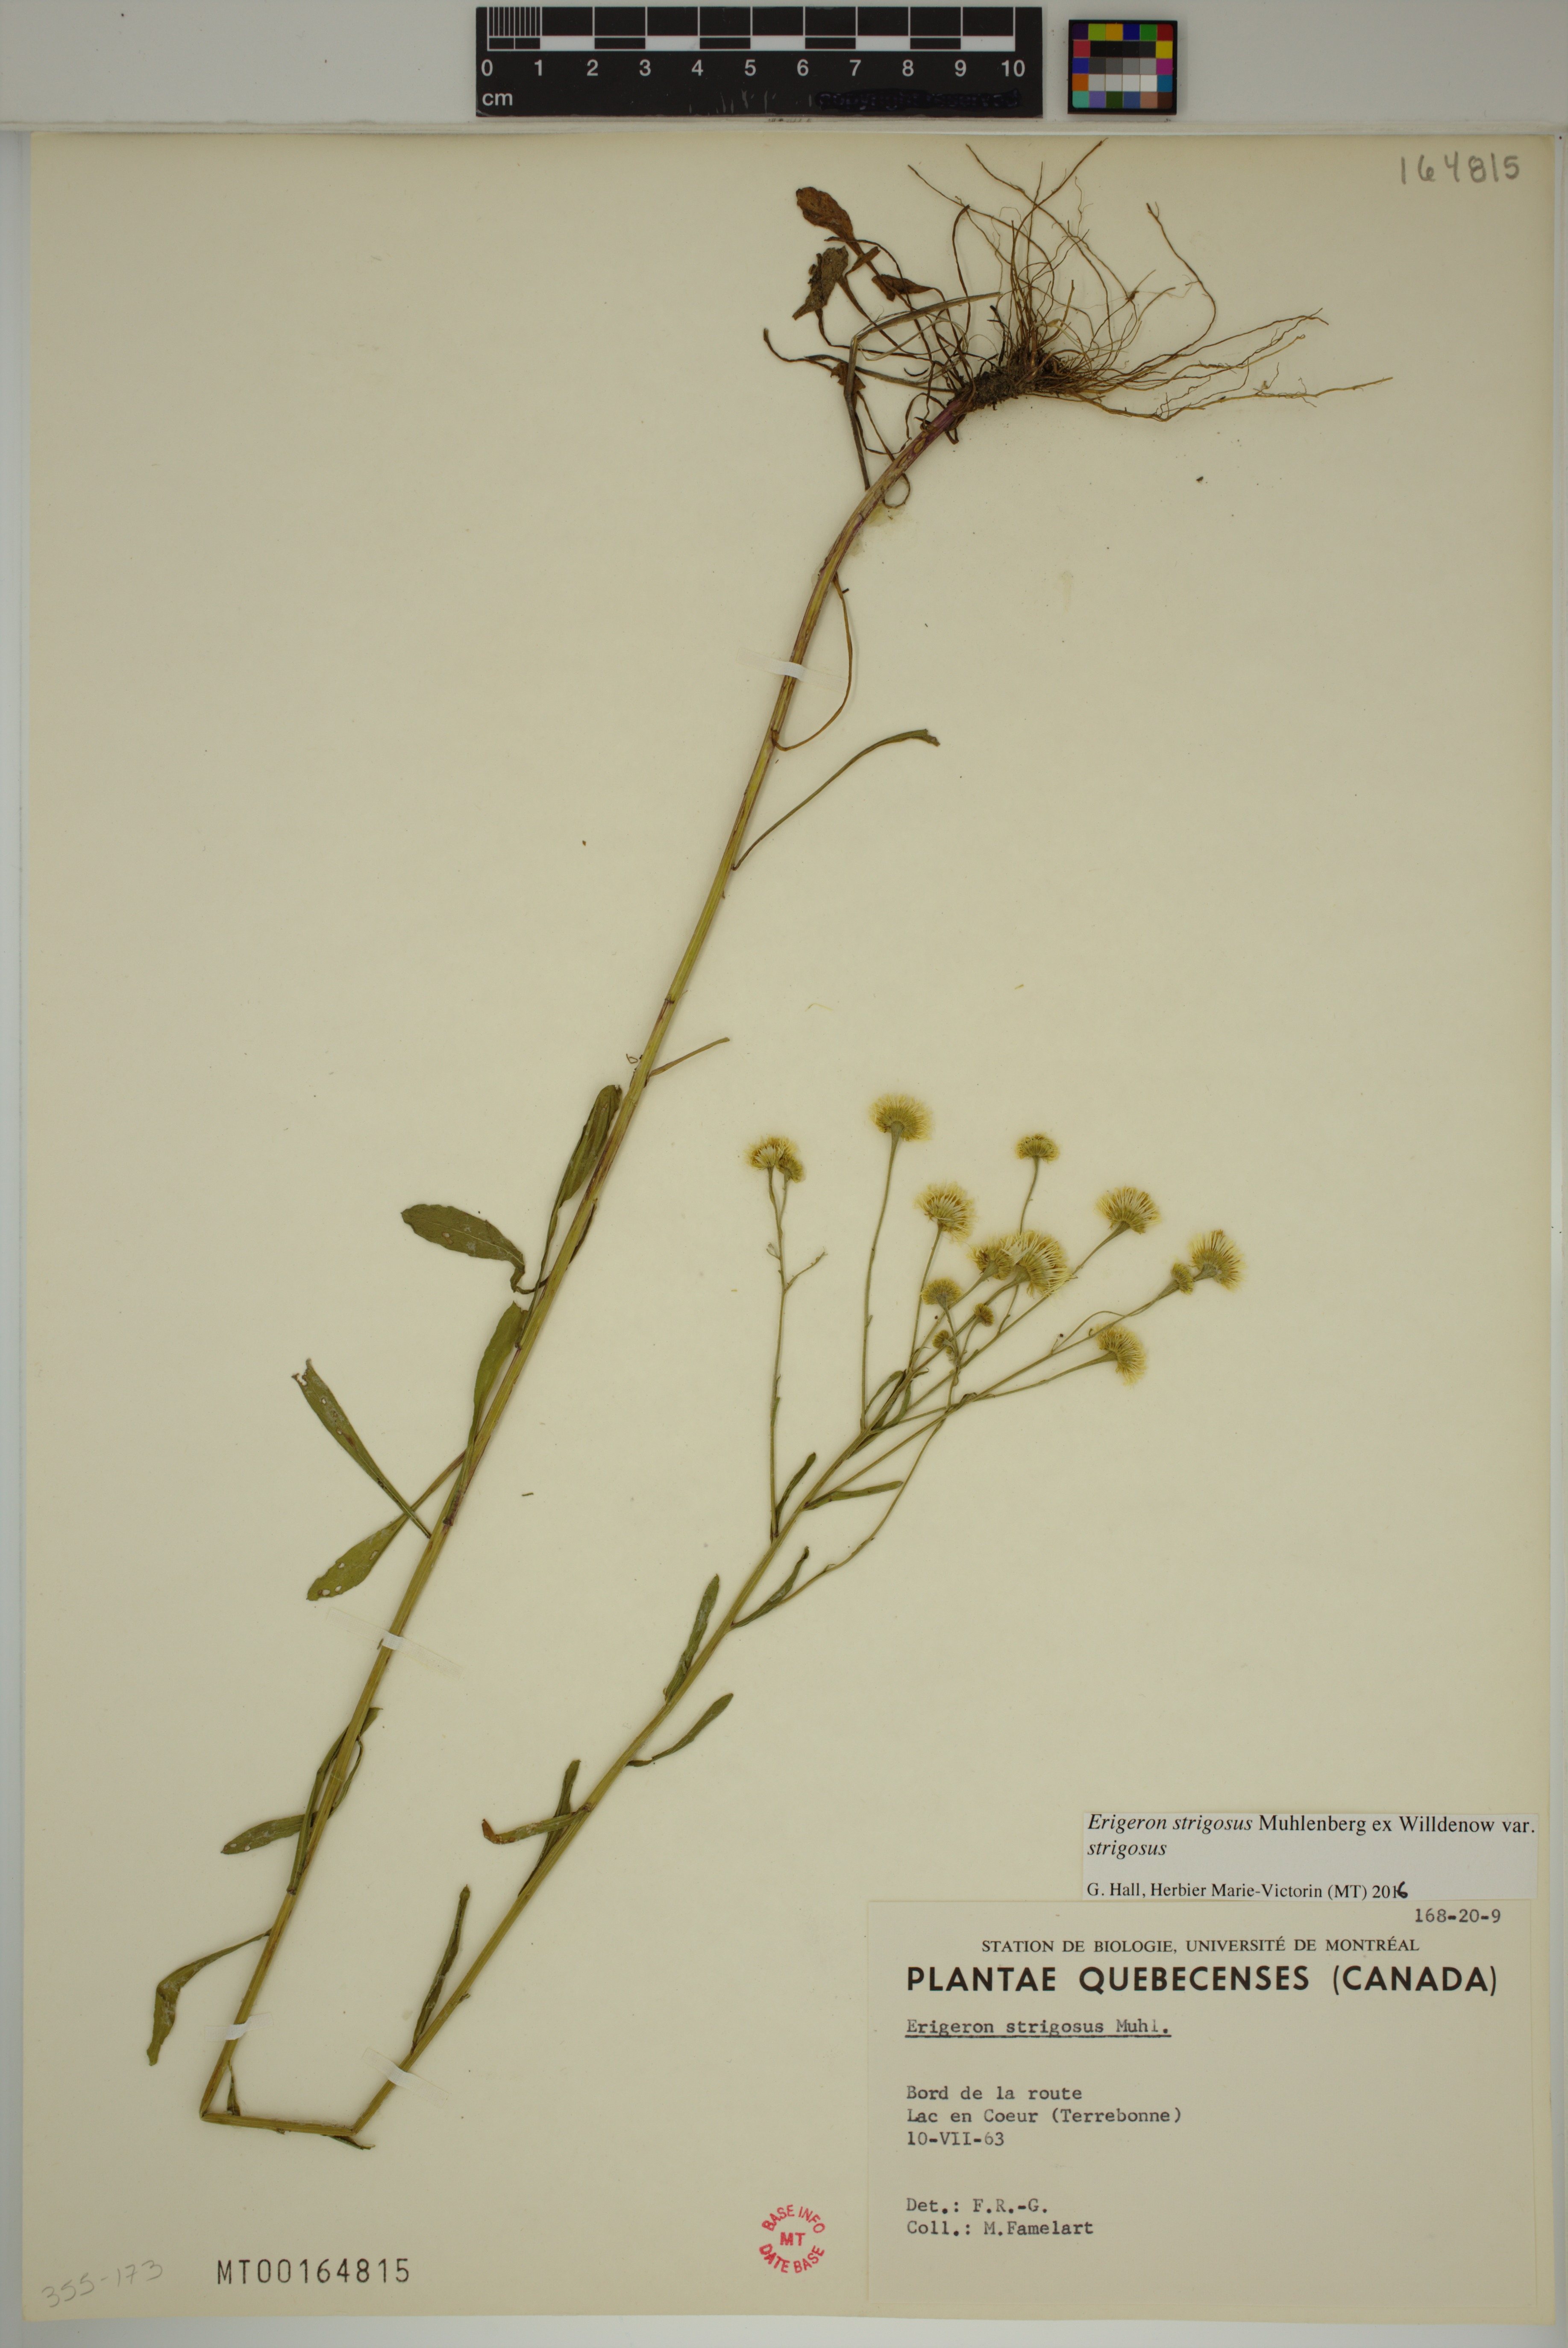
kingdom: Plantae
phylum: Tracheophyta
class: Magnoliopsida
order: Asterales
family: Asteraceae
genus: Erigeron
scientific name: Erigeron strigosus
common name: Common eastern fleabane
